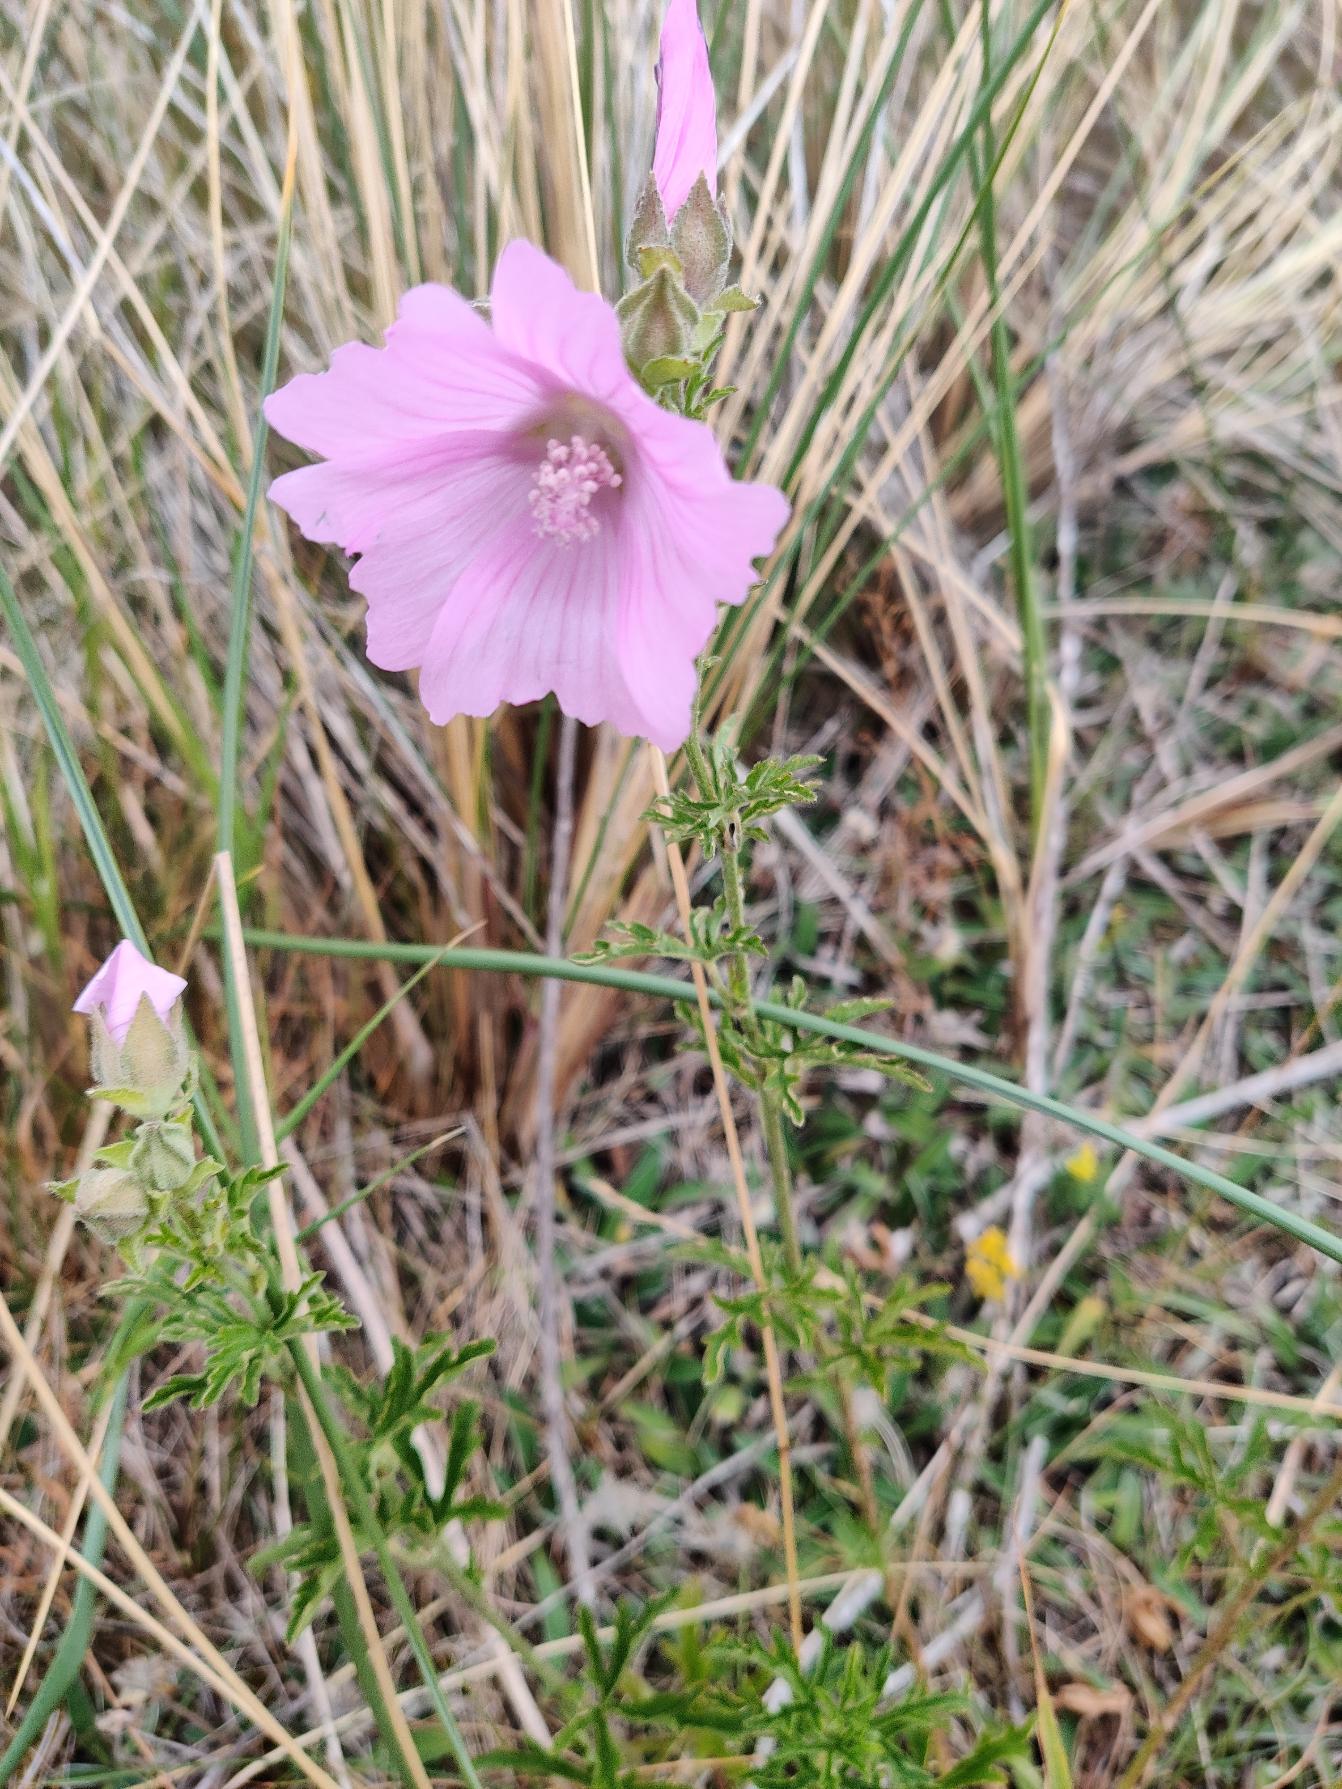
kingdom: Plantae
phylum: Tracheophyta
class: Magnoliopsida
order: Malvales
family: Malvaceae
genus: Malva
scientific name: Malva alcea
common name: Rosen-katost
